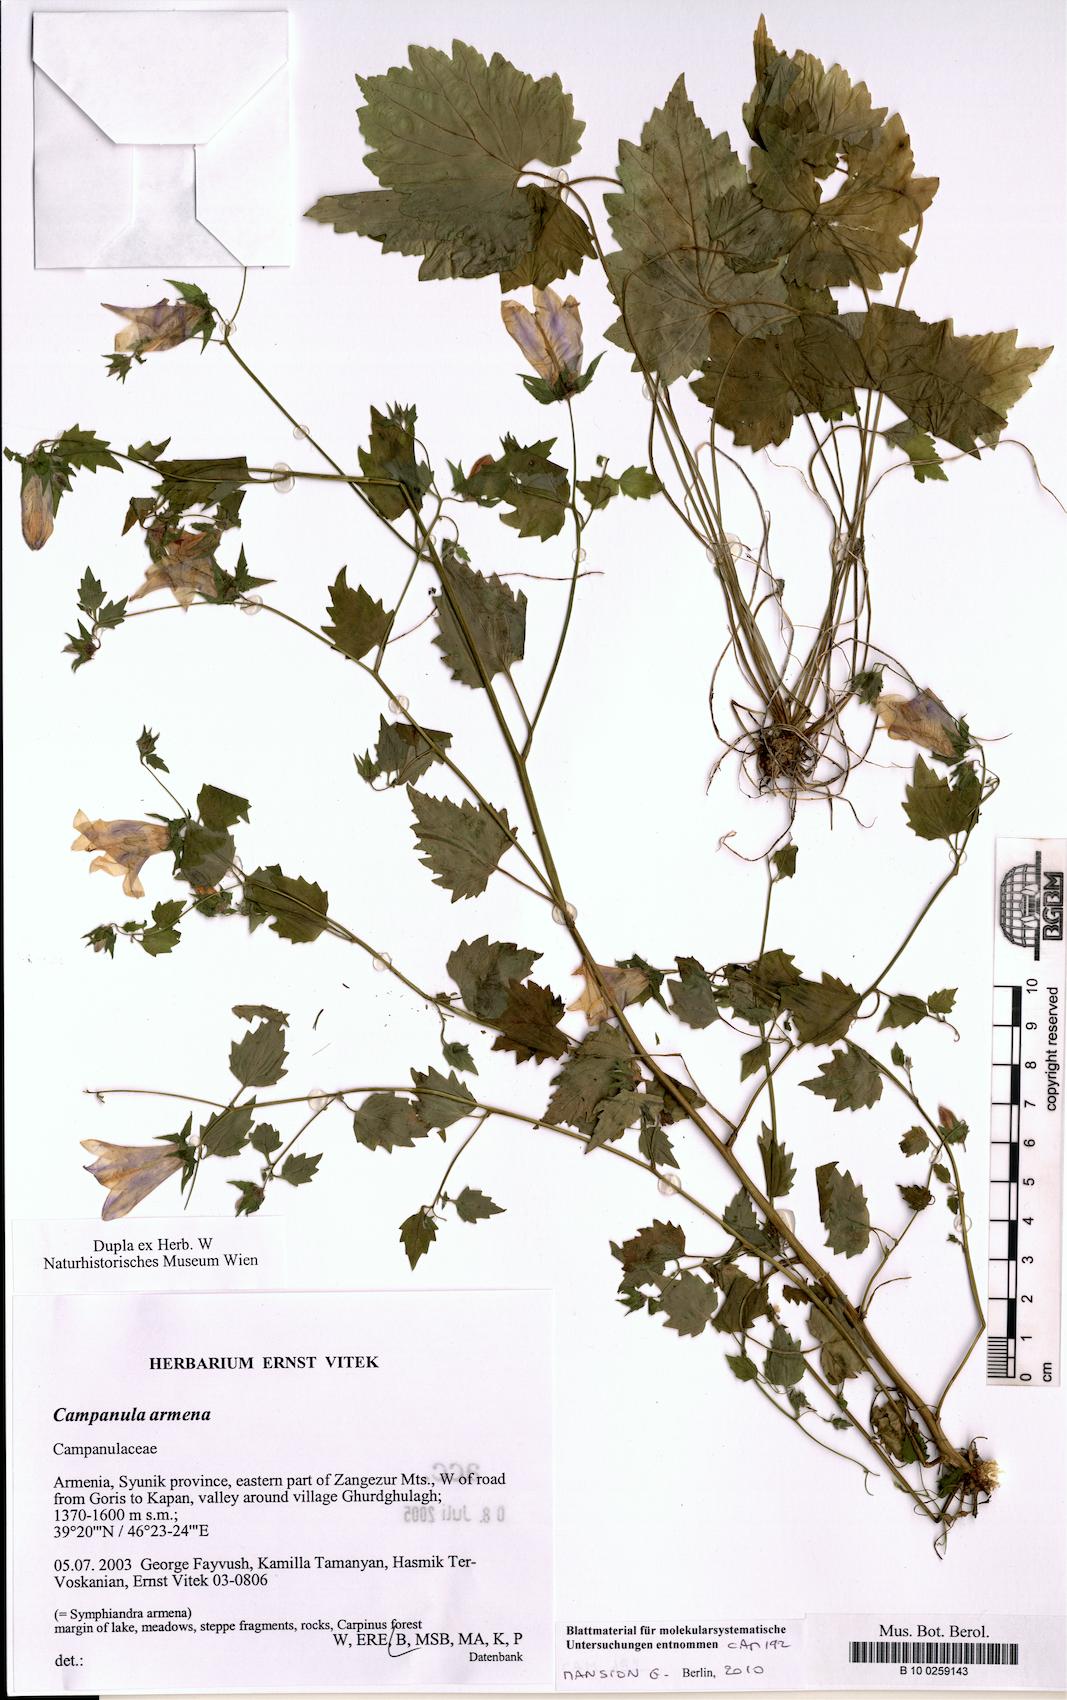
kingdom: Plantae
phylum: Tracheophyta
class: Magnoliopsida
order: Asterales
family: Campanulaceae
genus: Campanula
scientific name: Campanula armena
